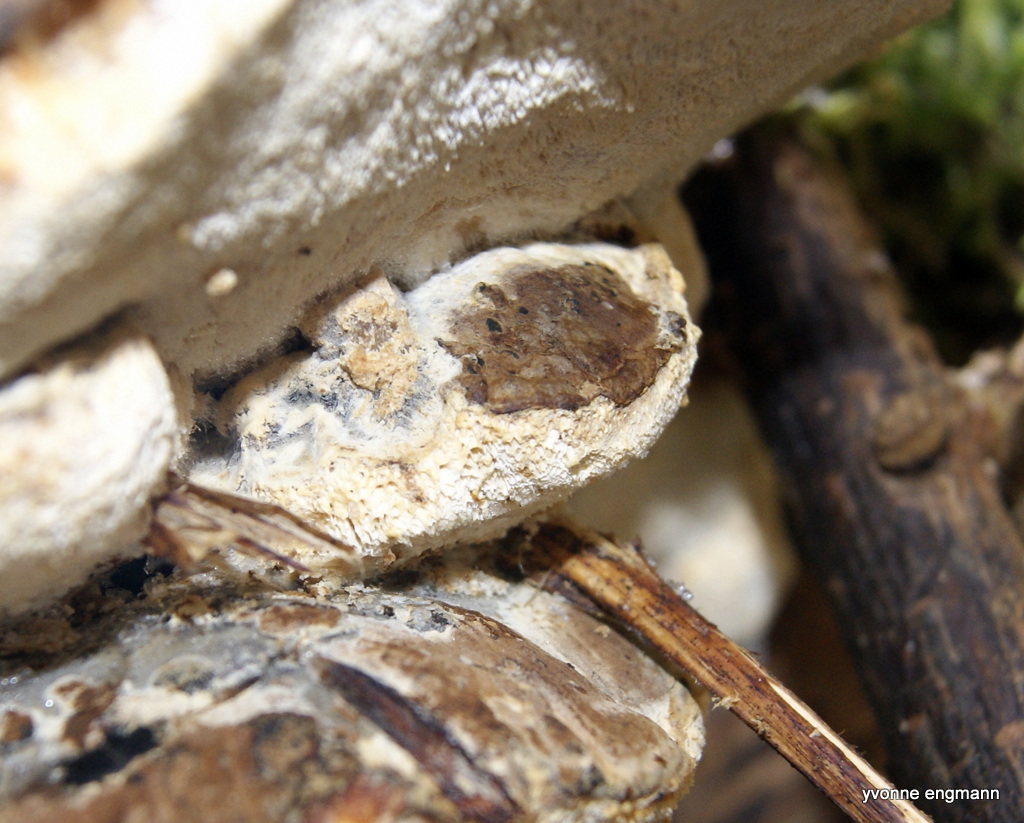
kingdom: Fungi
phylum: Basidiomycota
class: Agaricomycetes
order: Polyporales
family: Polyporaceae
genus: Ganoderma
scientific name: Ganoderma applanatum
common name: flad lakporesvamp
